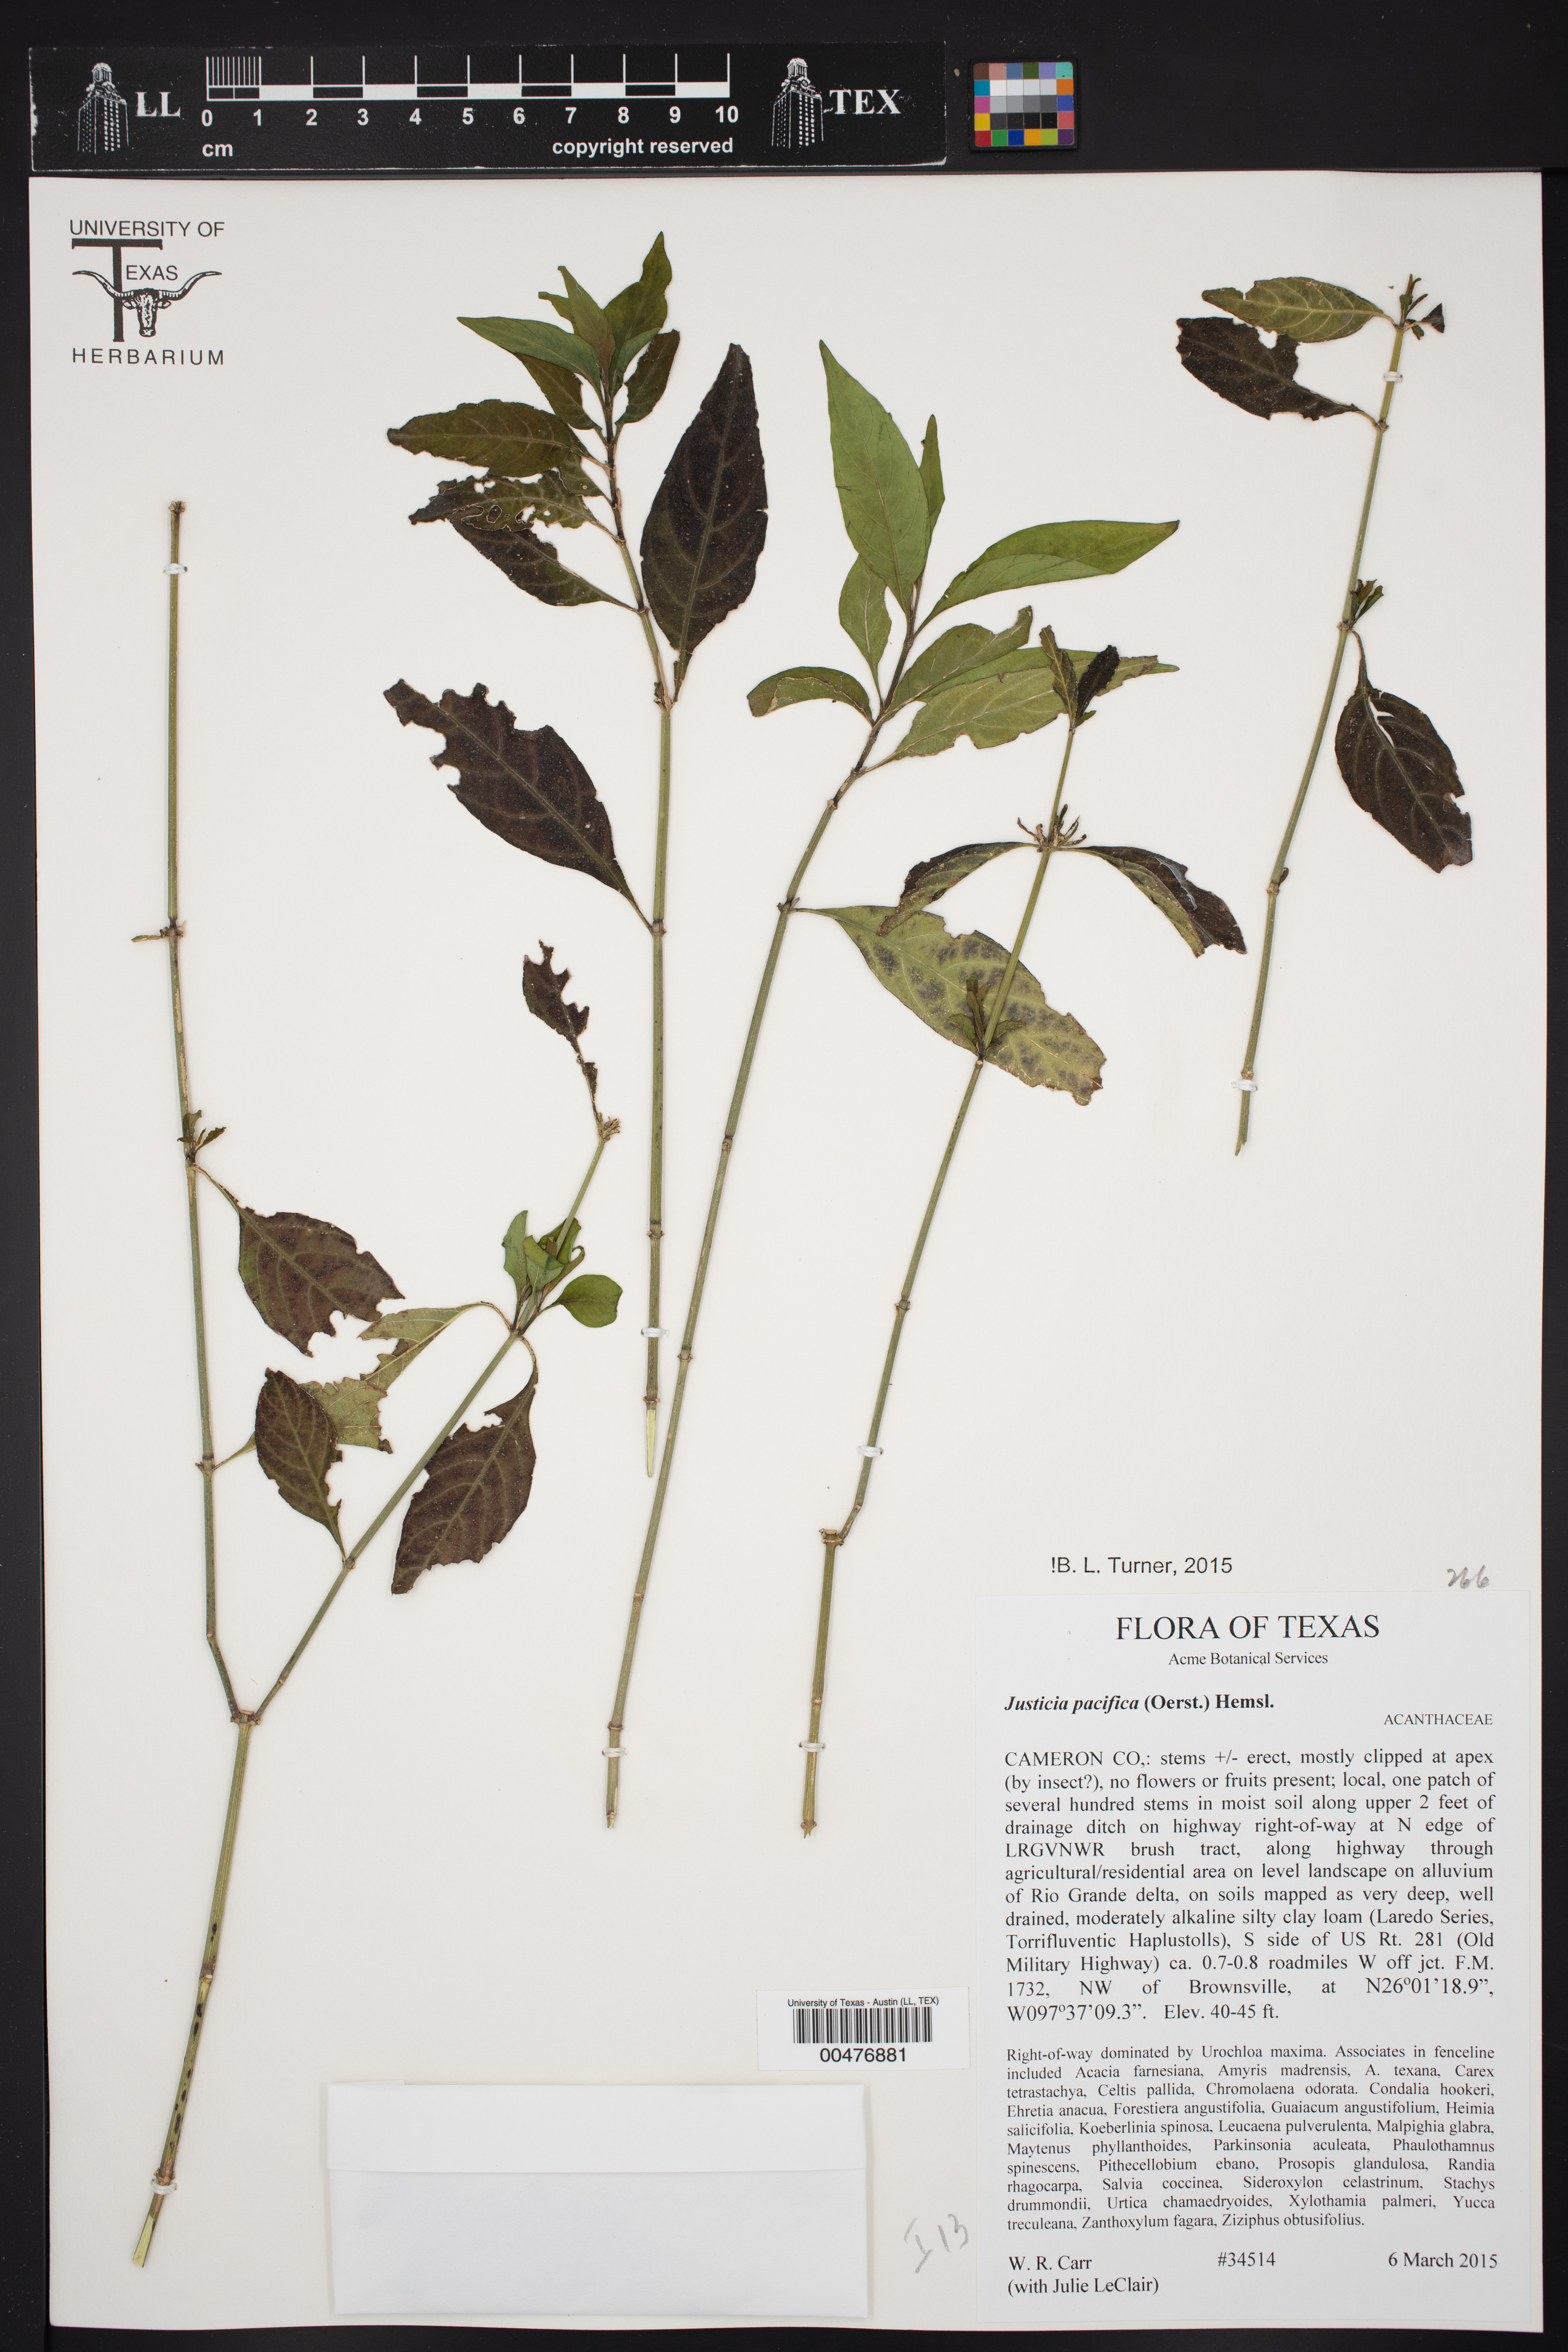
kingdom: Plantae
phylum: Tracheophyta
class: Magnoliopsida
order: Lamiales
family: Acanthaceae
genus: Justicia
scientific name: Justicia pacifica
